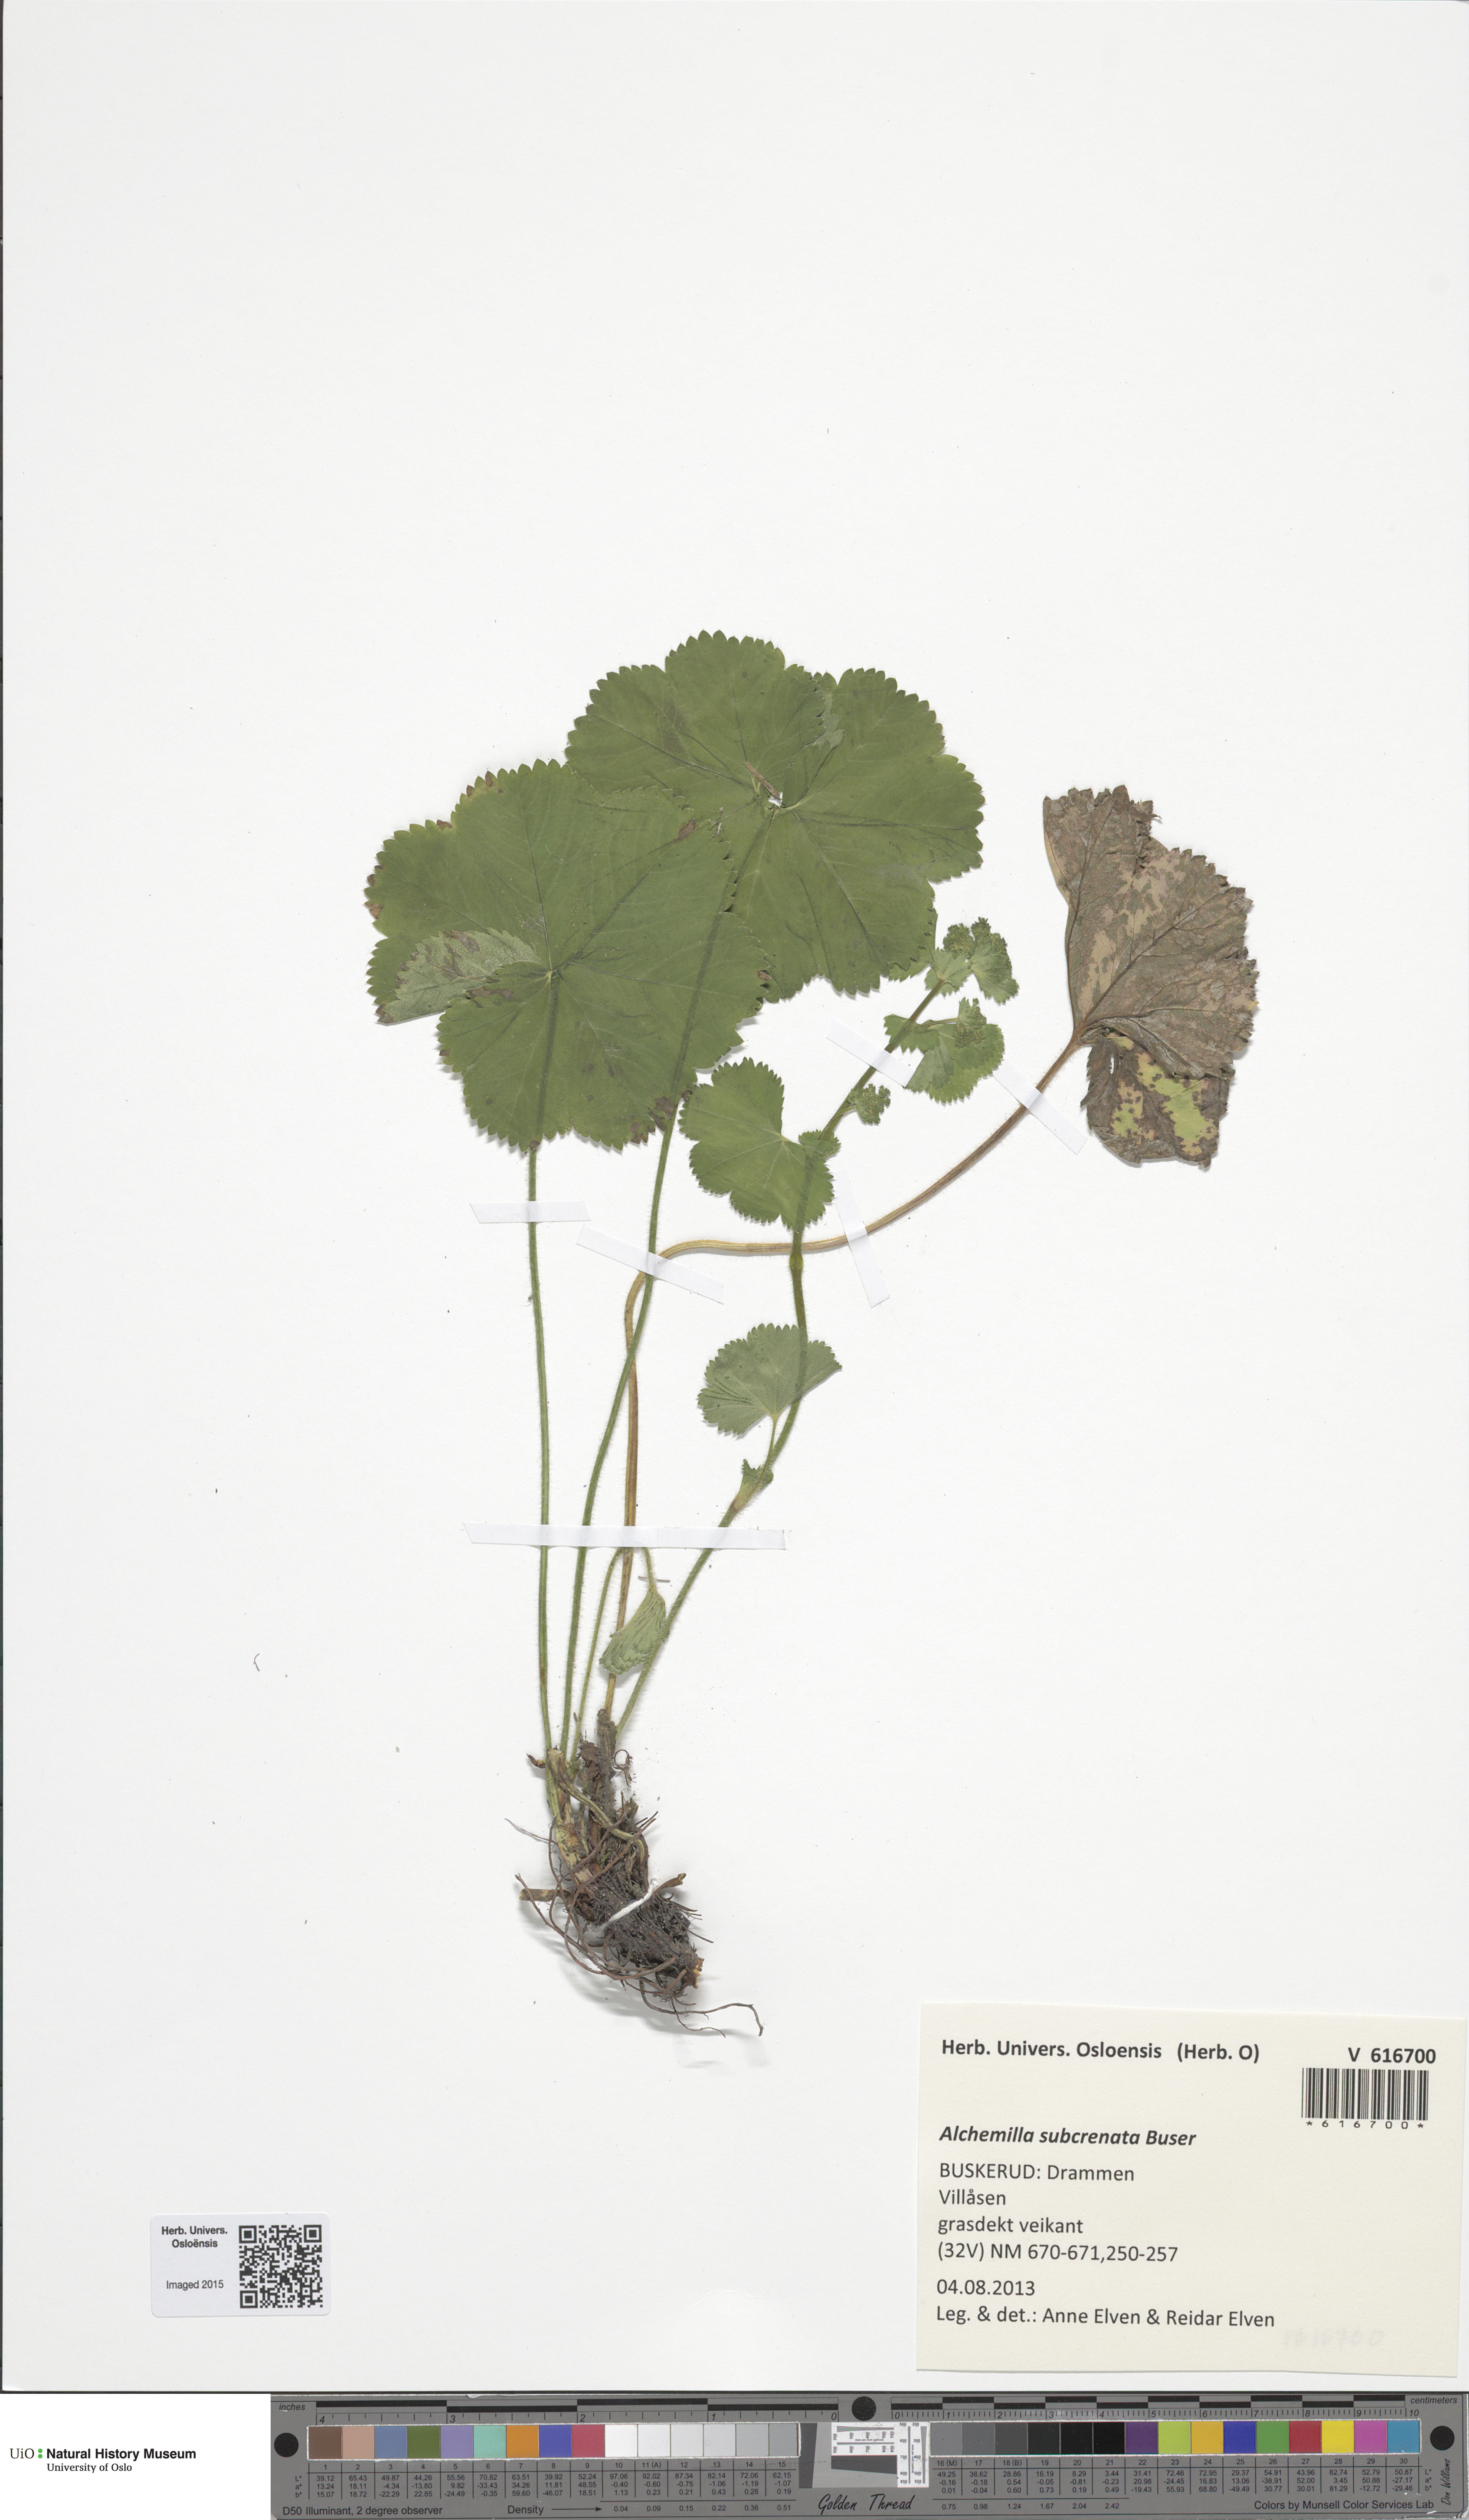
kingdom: Plantae
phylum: Tracheophyta
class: Magnoliopsida
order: Rosales
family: Rosaceae
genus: Alchemilla
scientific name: Alchemilla subcrenata
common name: Broadtooth lady's mantle
